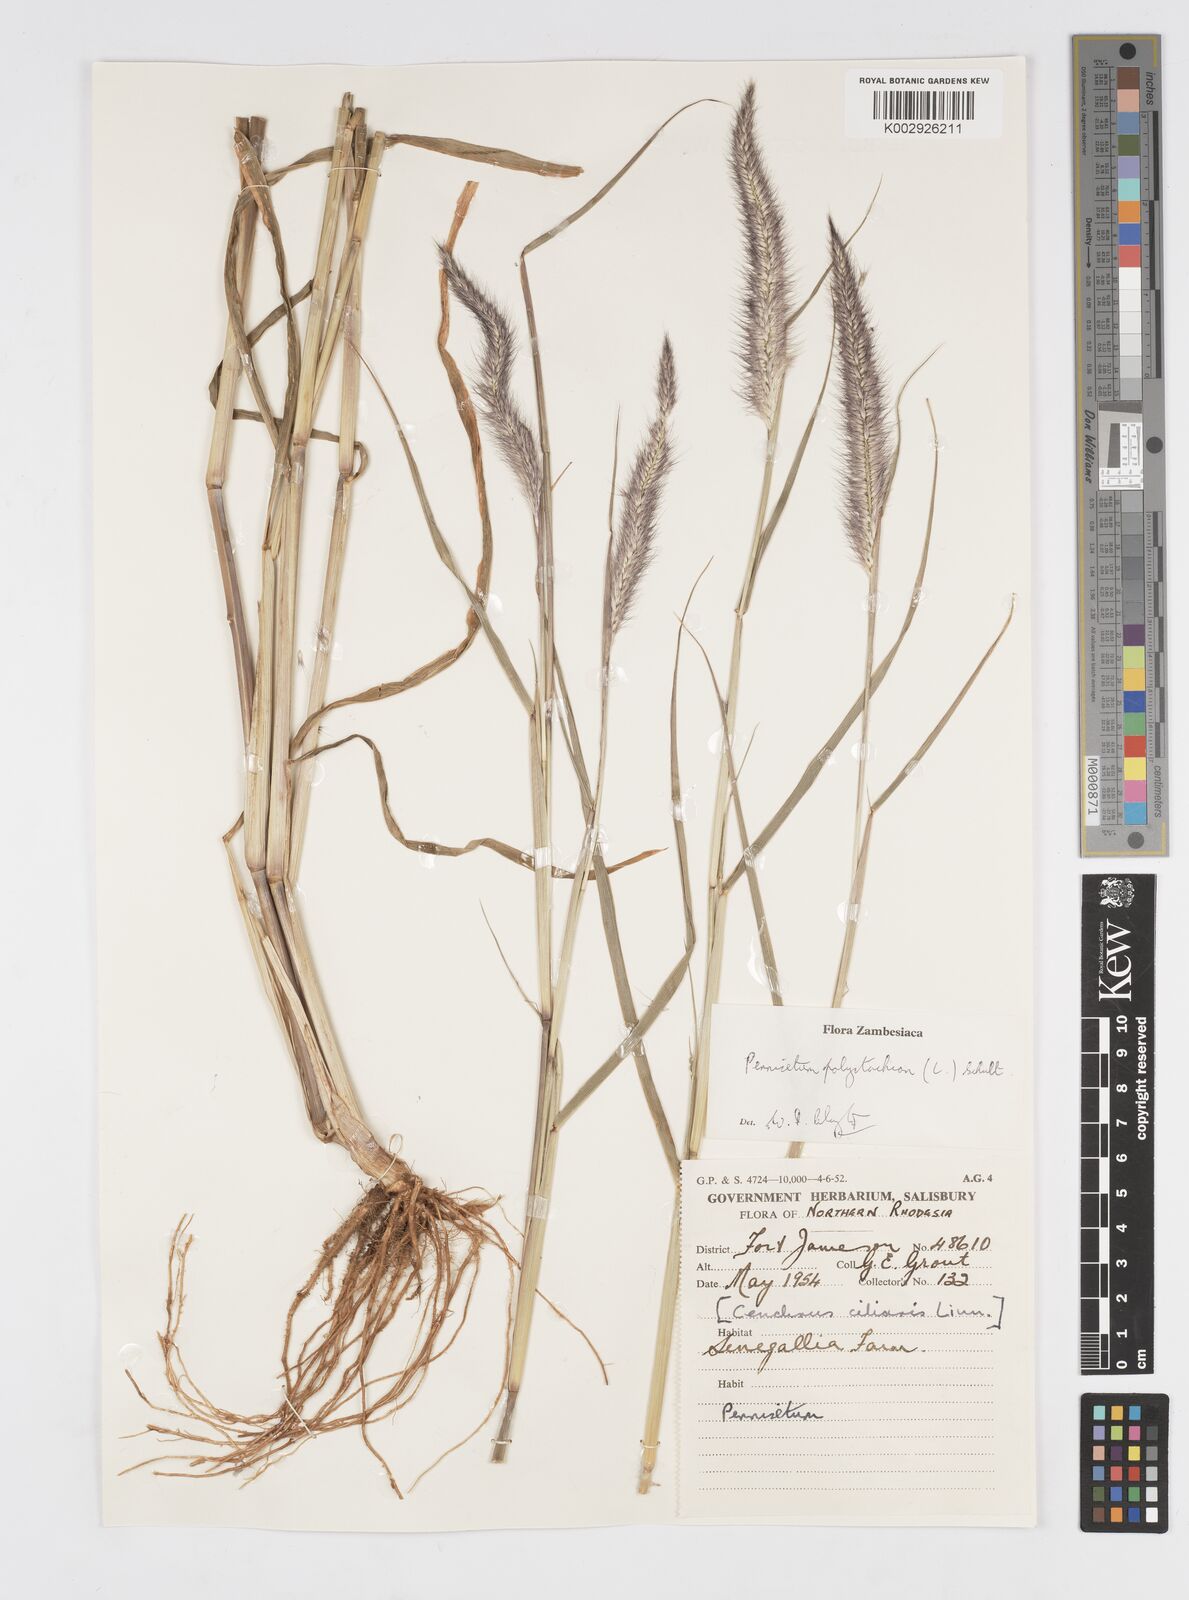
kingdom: Plantae
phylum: Tracheophyta
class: Liliopsida
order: Poales
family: Poaceae
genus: Setaria
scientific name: Setaria parviflora
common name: Knotroot bristle-grass
